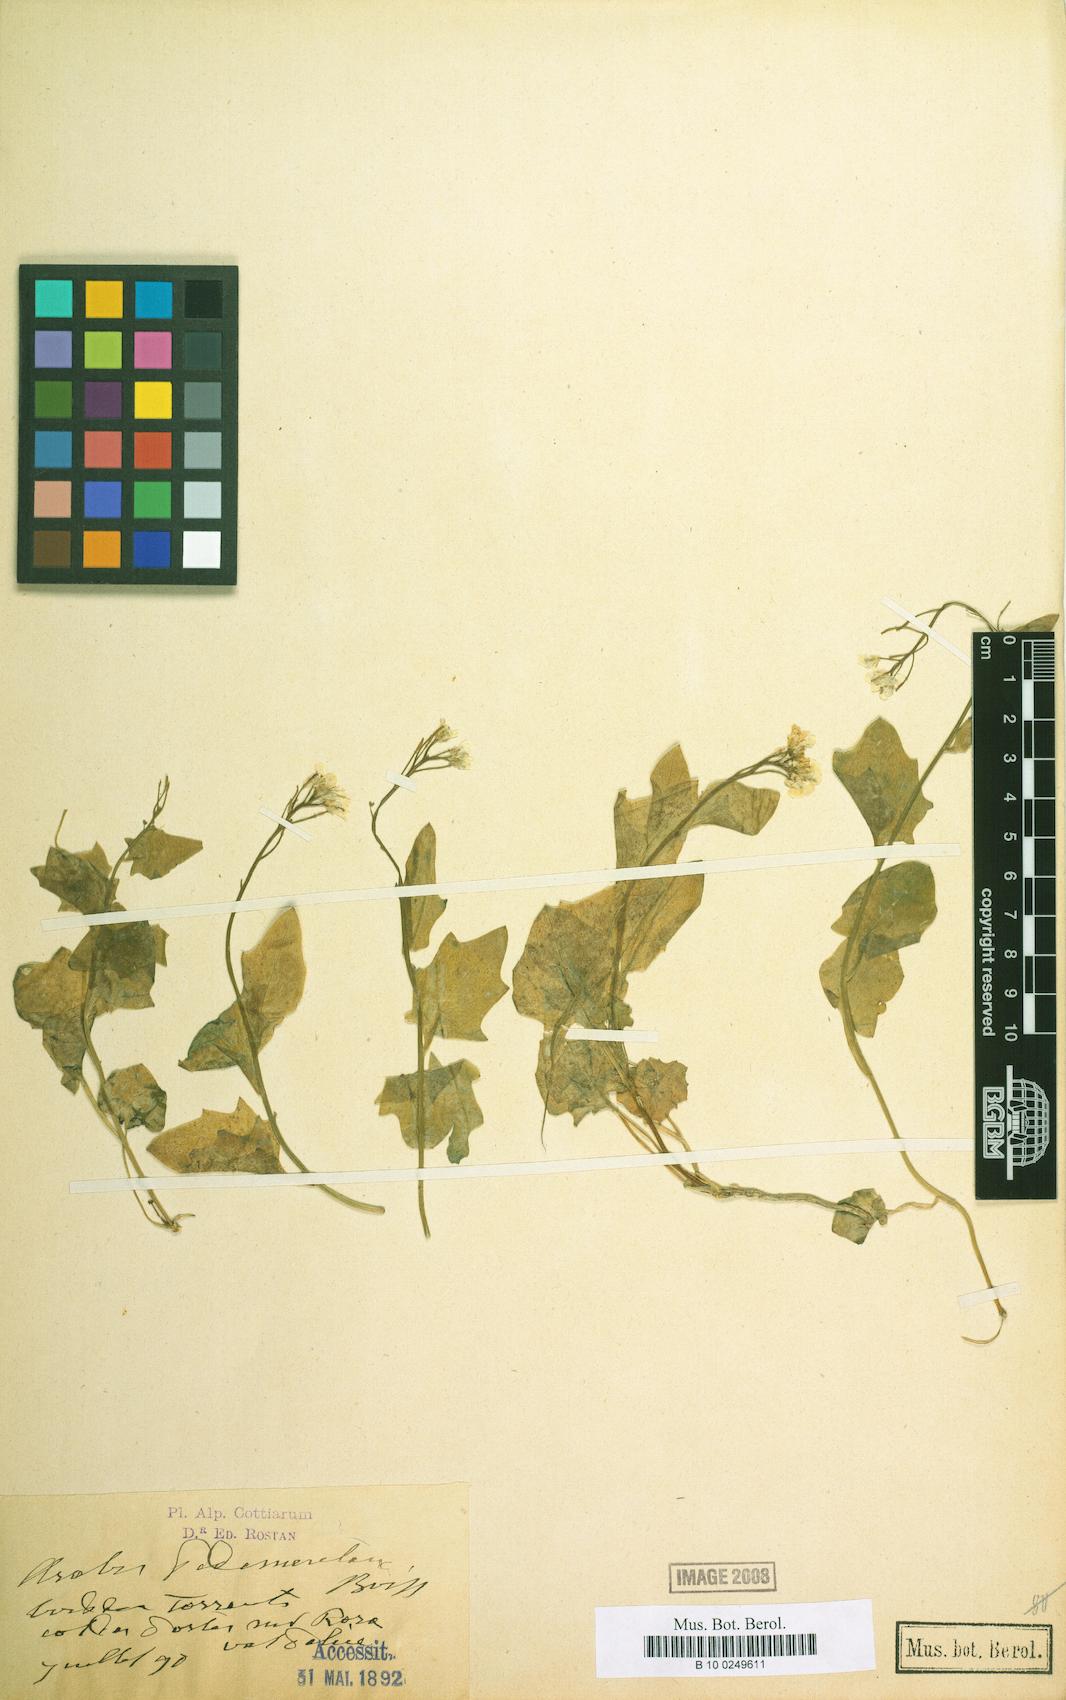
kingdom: Plantae
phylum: Tracheophyta
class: Magnoliopsida
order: Brassicales
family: Brassicaceae
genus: Arabidopsis
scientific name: Arabidopsis pedemontana
